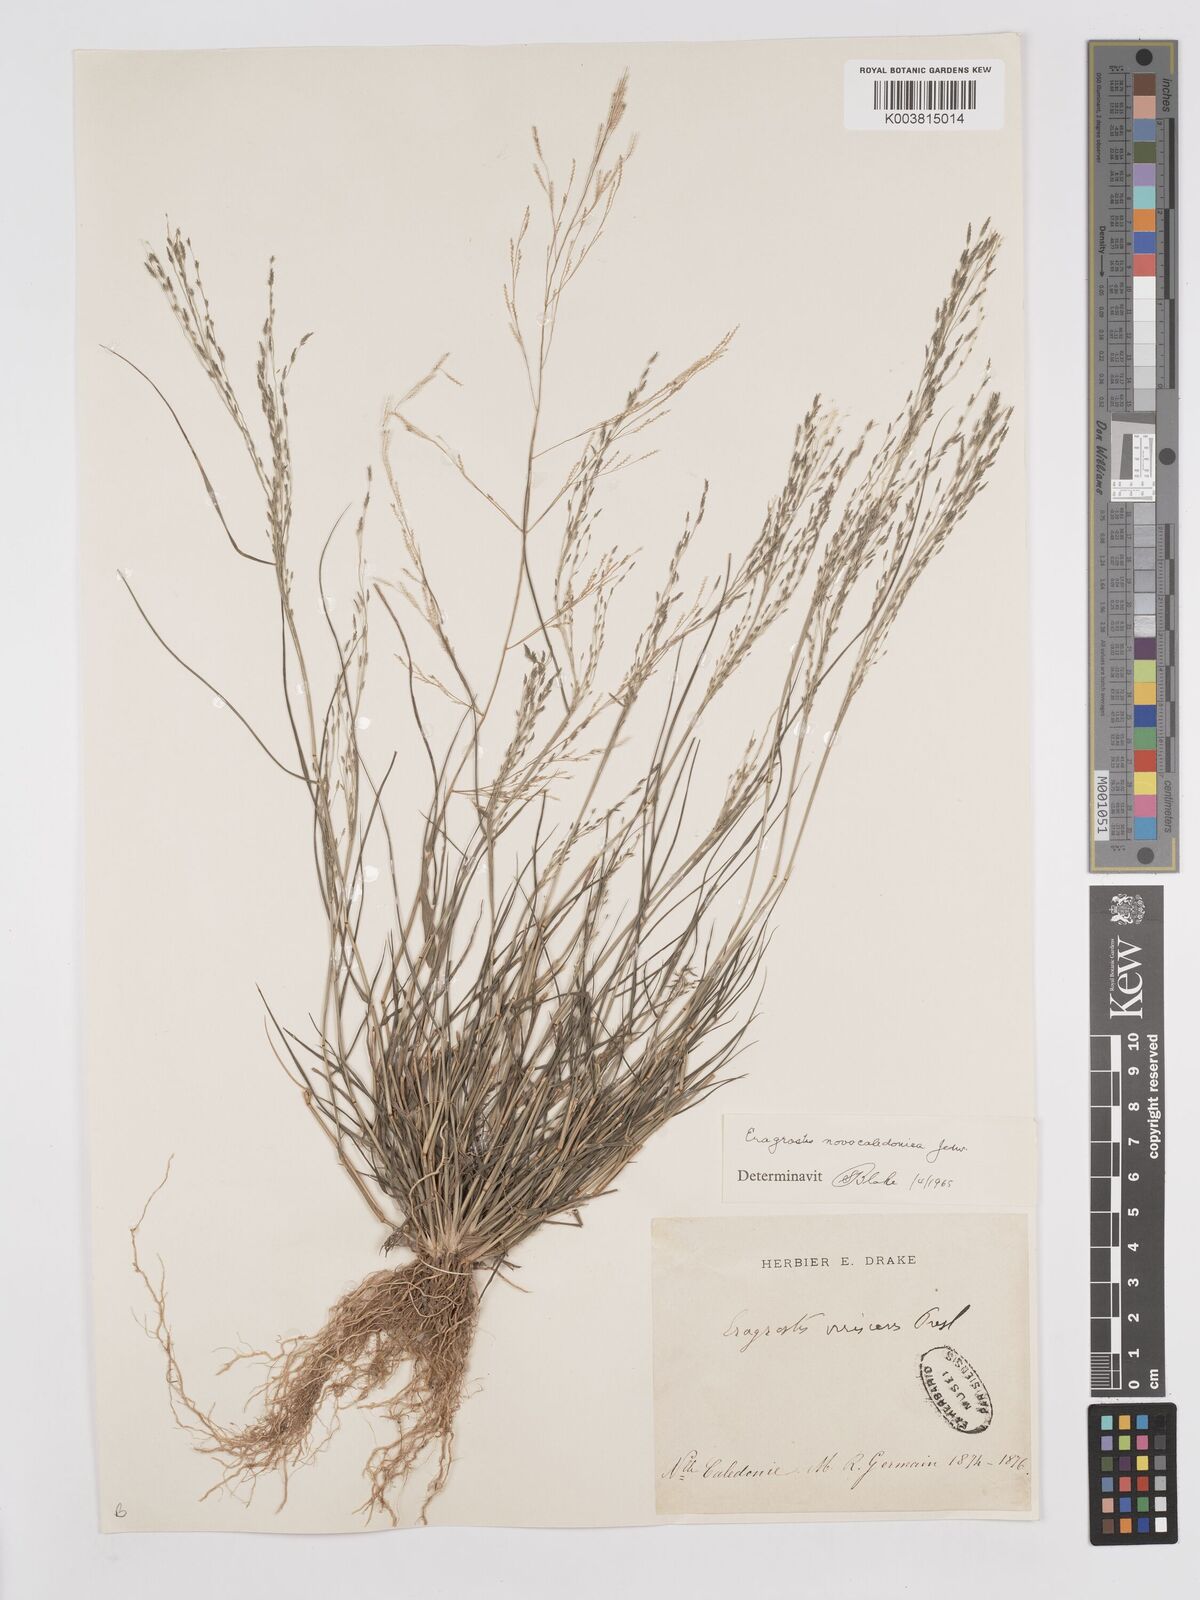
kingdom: Plantae
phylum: Tracheophyta
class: Liliopsida
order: Poales
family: Poaceae
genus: Eragrostis
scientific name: Eragrostis parviflora
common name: Weeping love-grass
